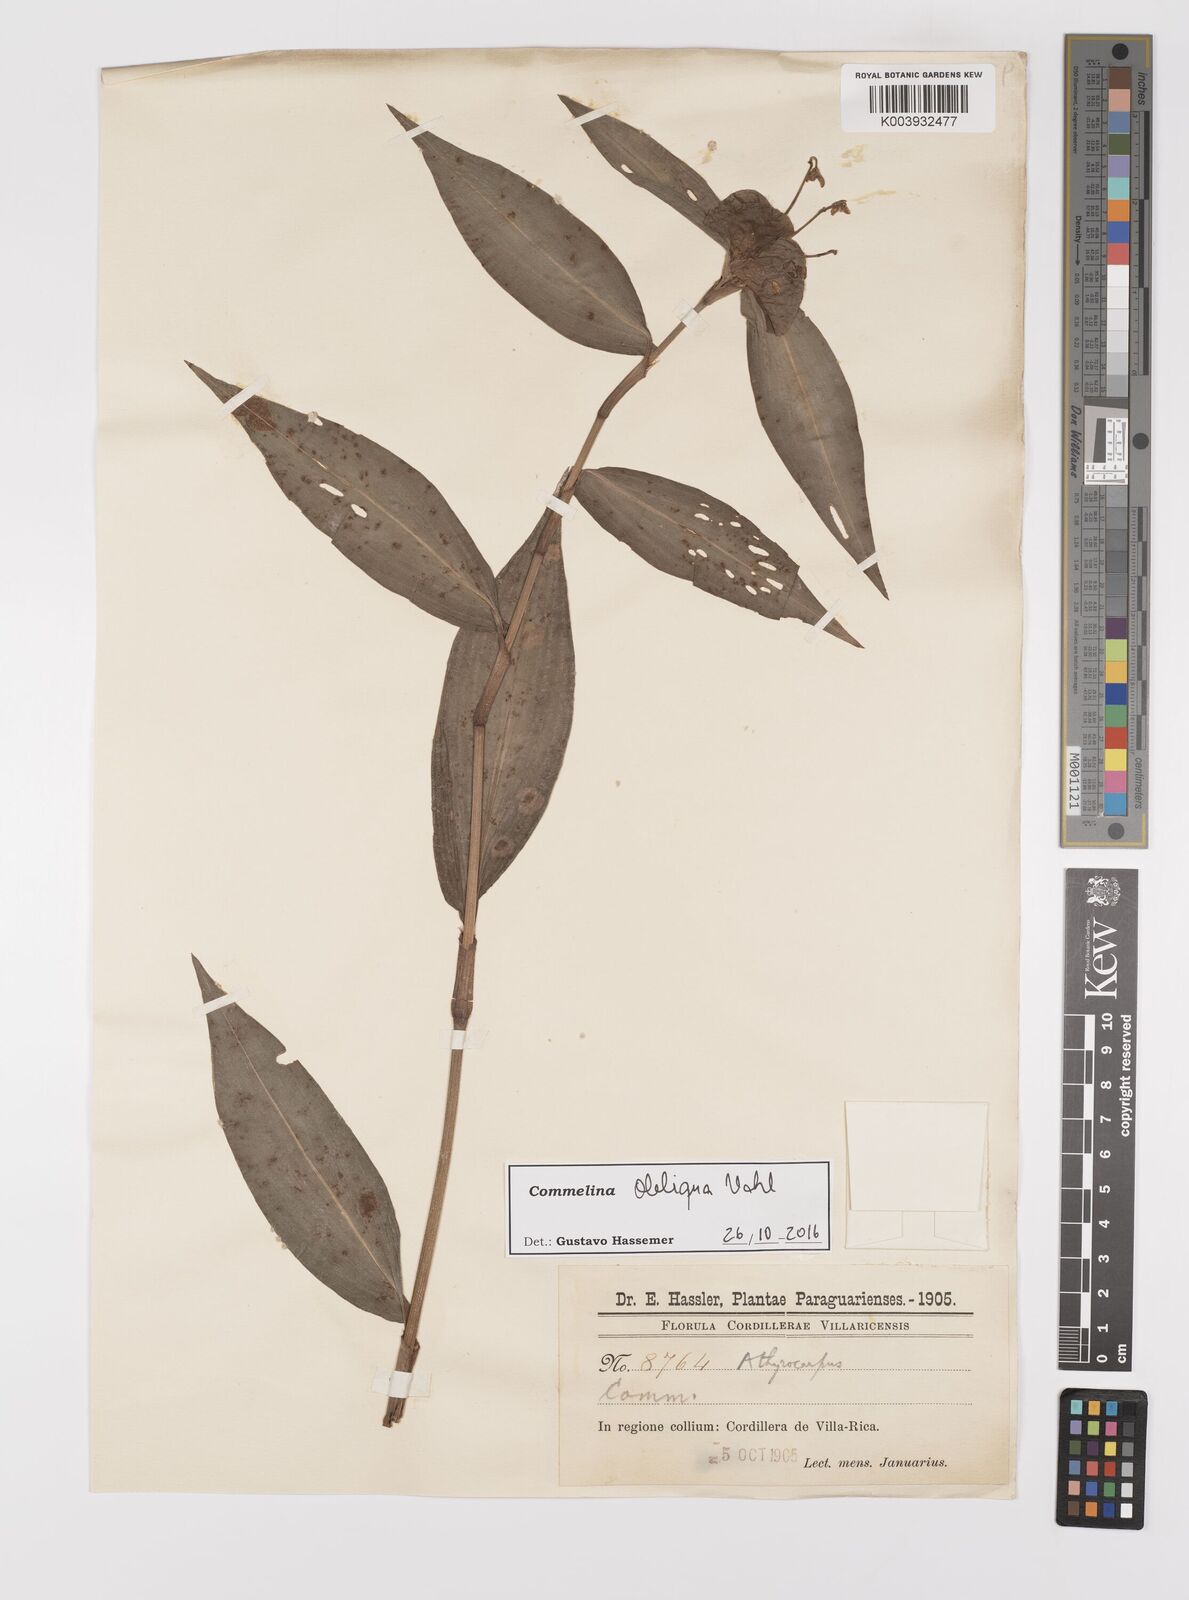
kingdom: Plantae
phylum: Tracheophyta
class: Liliopsida
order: Commelinales
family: Commelinaceae
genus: Commelina
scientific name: Commelina obliqua
